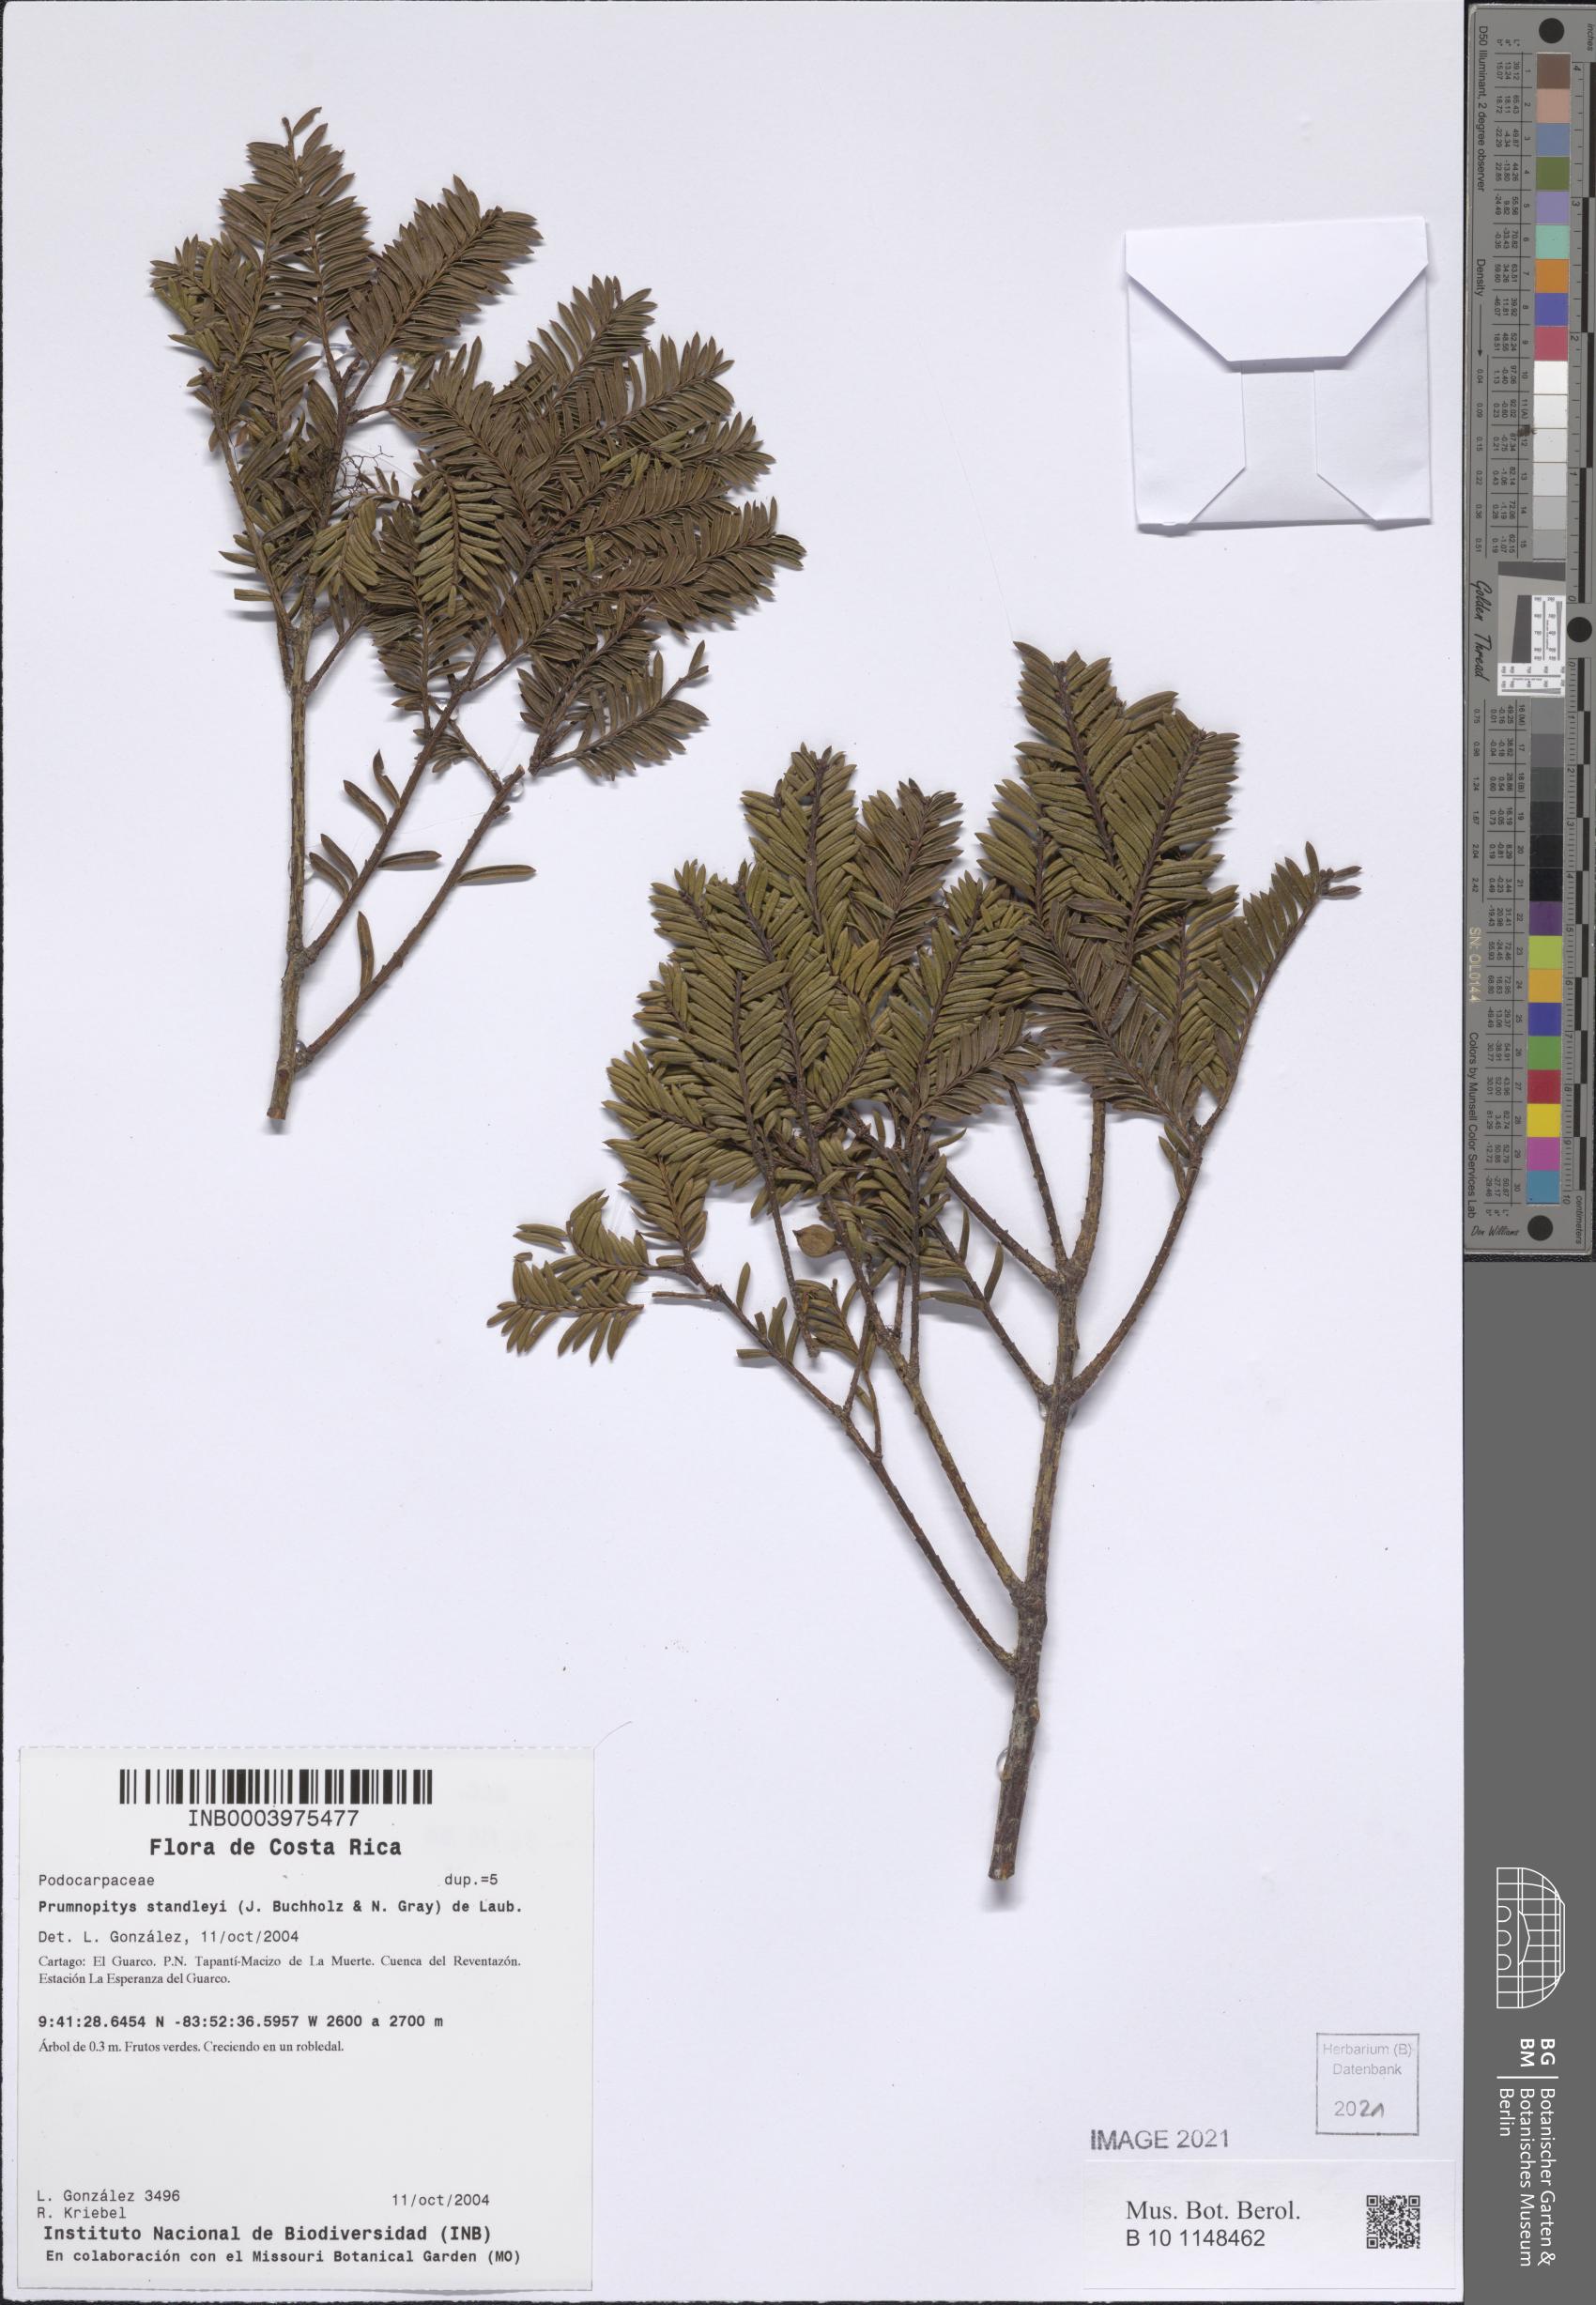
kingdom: Plantae
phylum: Tracheophyta
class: Pinopsida
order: Pinales
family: Podocarpaceae
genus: Prumnopitys
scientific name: Prumnopitys standleyi
